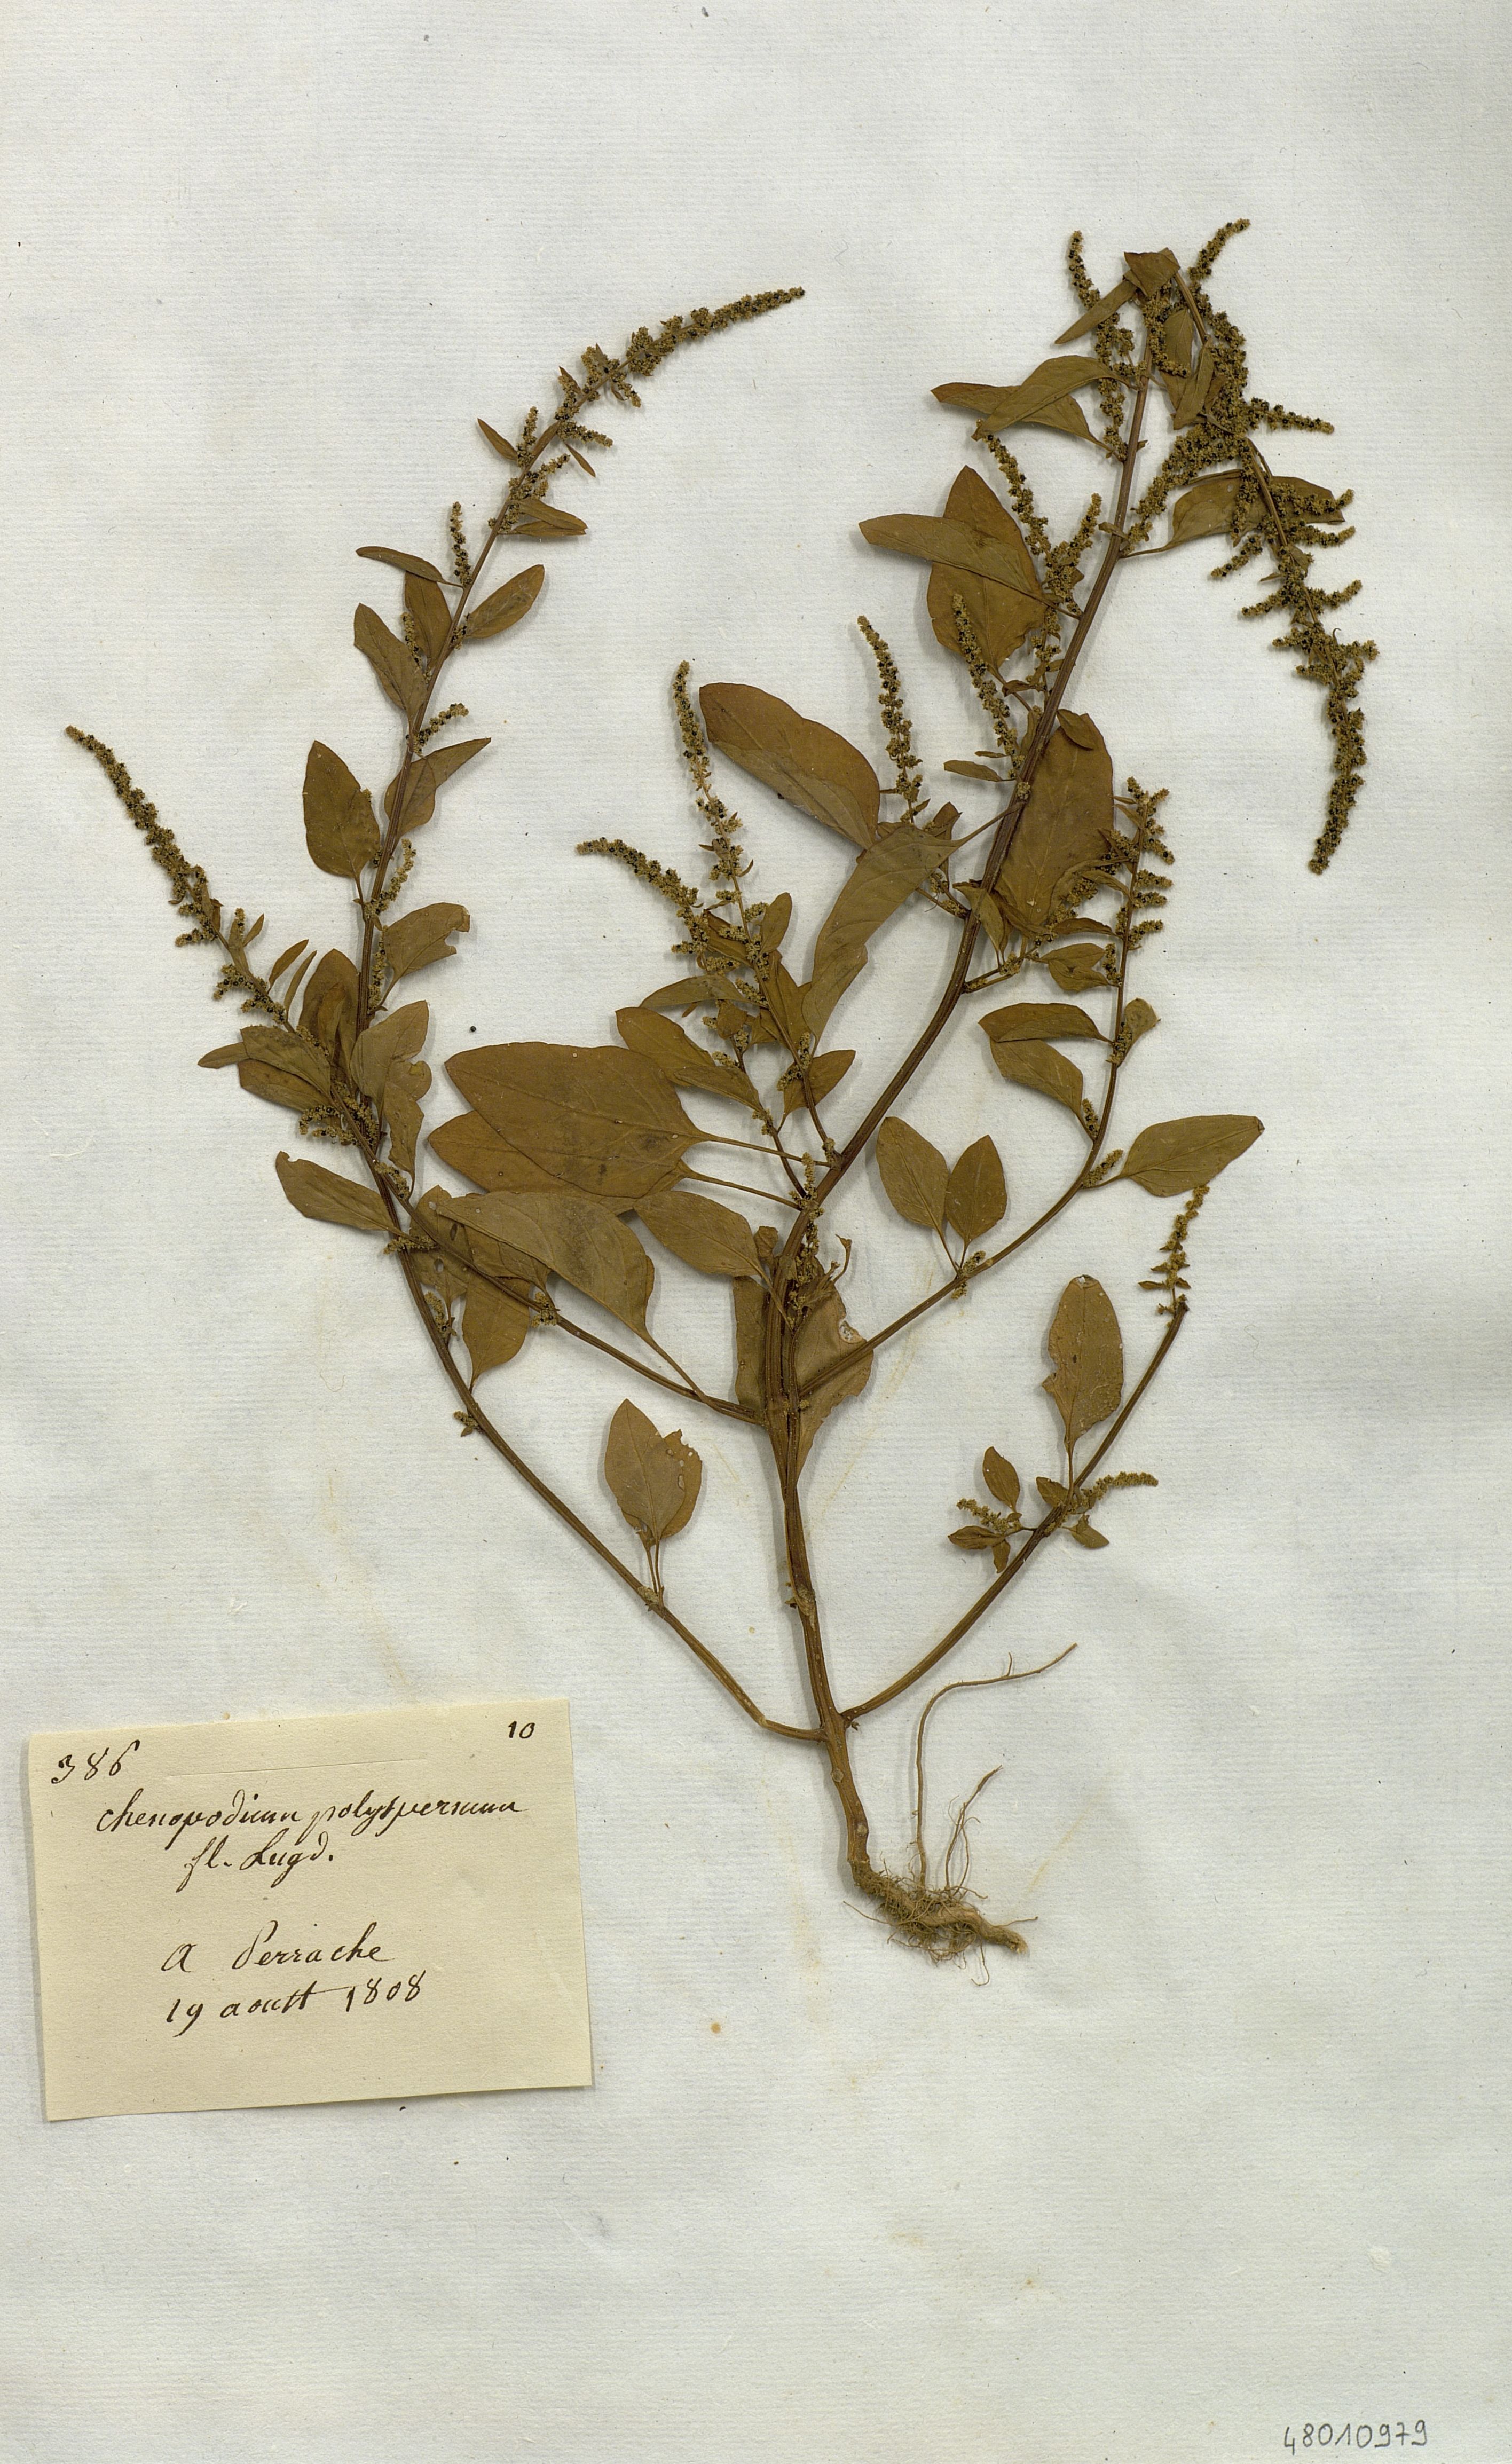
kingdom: Plantae
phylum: Tracheophyta
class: Magnoliopsida
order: Caryophyllales
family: Amaranthaceae
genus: Lipandra
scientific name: Lipandra polysperma
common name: Many-seed goosefoot
